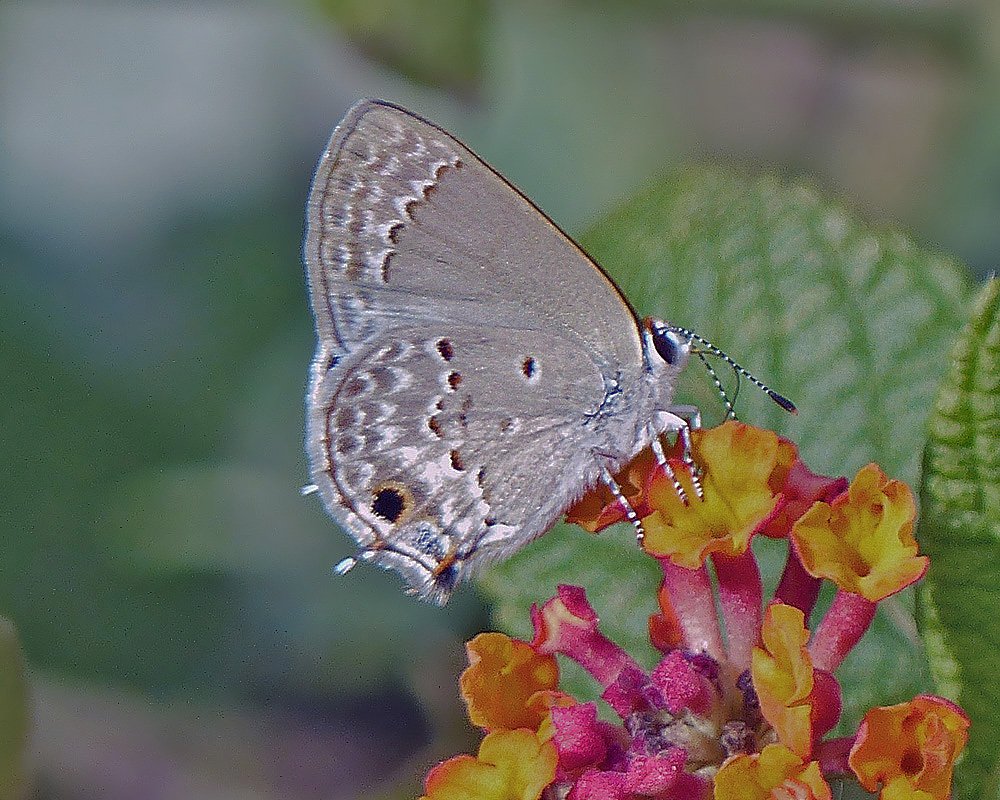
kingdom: Animalia
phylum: Arthropoda
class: Insecta
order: Lepidoptera
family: Lycaenidae
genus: Callicista
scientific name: Callicista columella
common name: Mallow Scrub-Hairstreak
